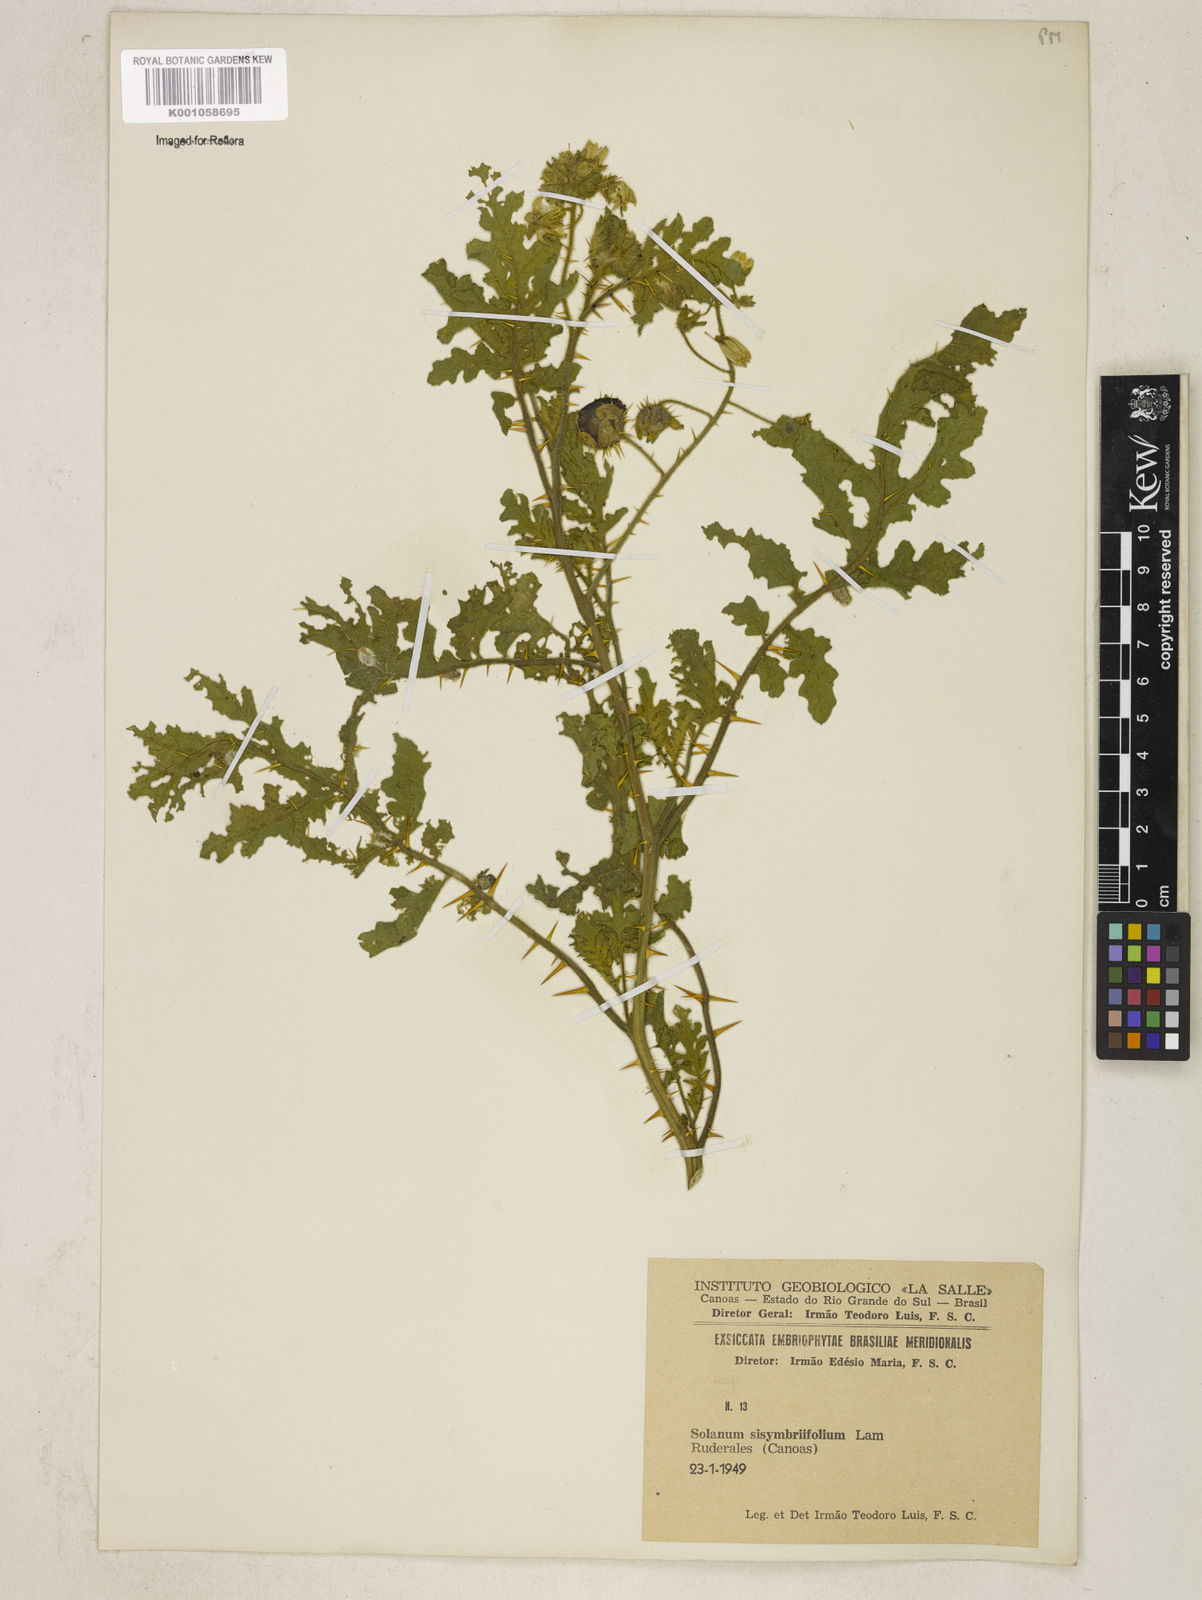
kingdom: Plantae
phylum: Tracheophyta
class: Magnoliopsida
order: Solanales
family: Solanaceae
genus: Solanum
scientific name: Solanum sisymbriifolium
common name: Red buffalo-bur
